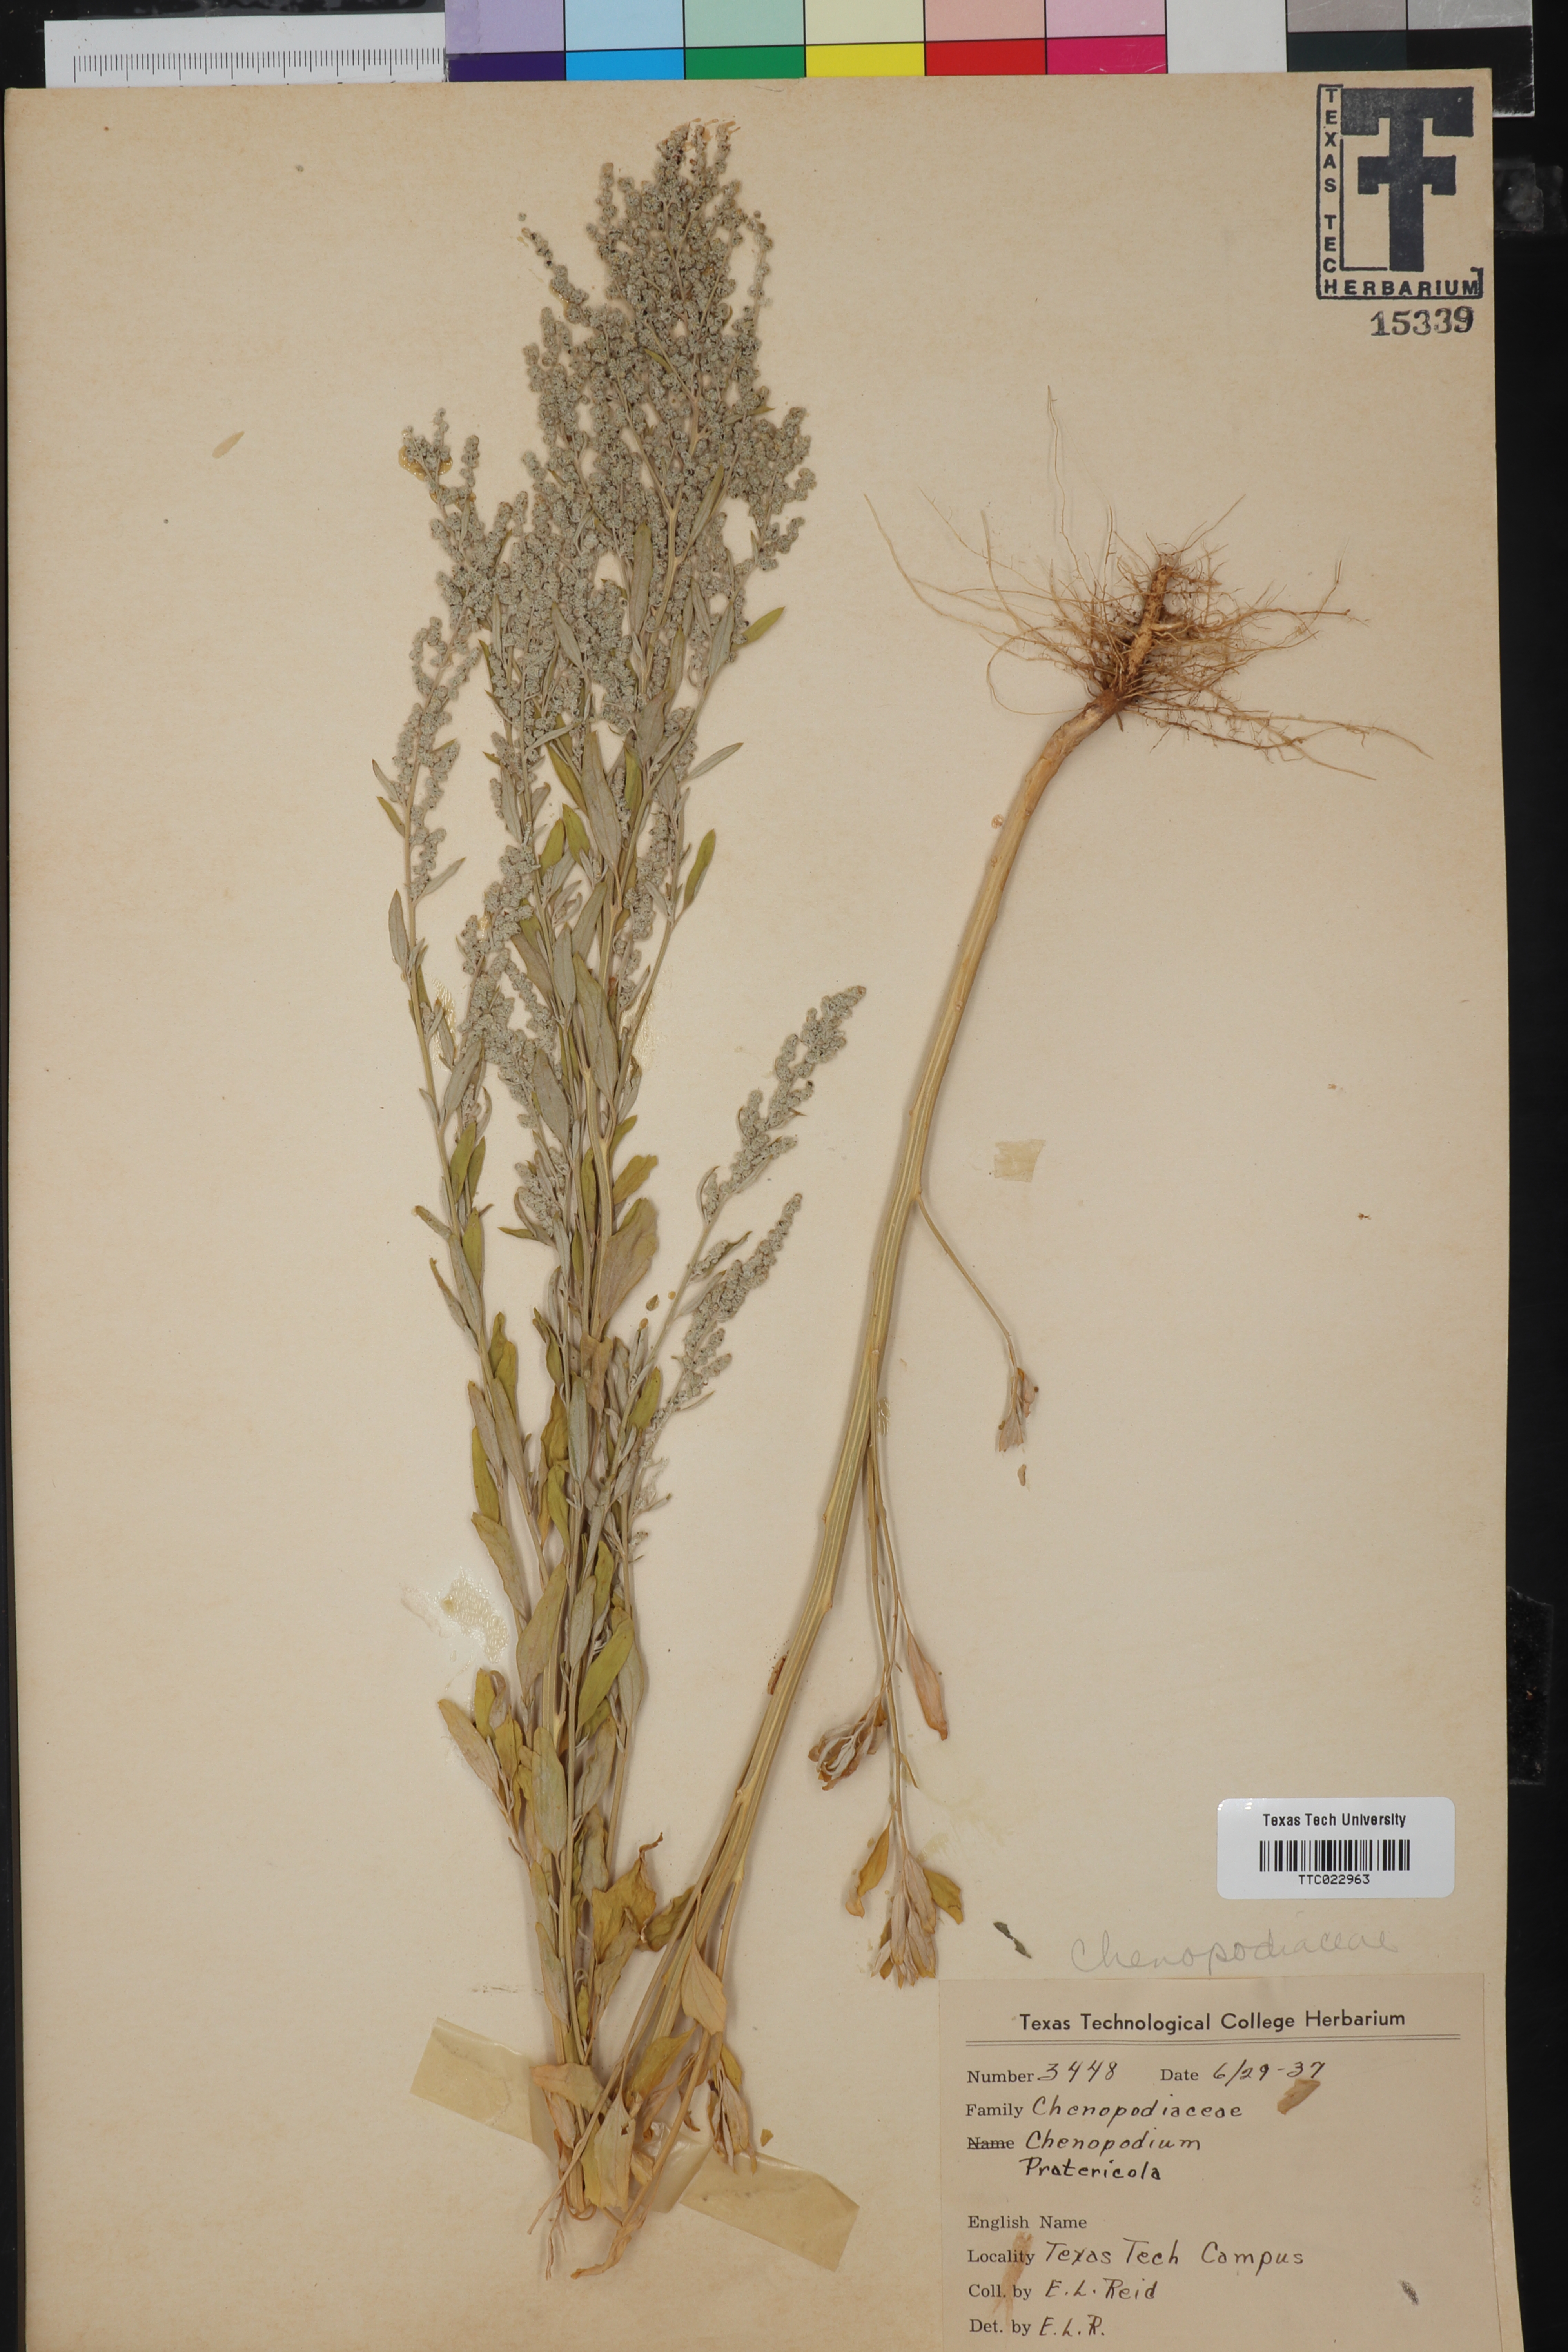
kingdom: Plantae
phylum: Tracheophyta
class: Magnoliopsida
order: Caryophyllales
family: Amaranthaceae
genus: Chenopodium
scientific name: Chenopodium pratericola
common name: Desert goosefoot
